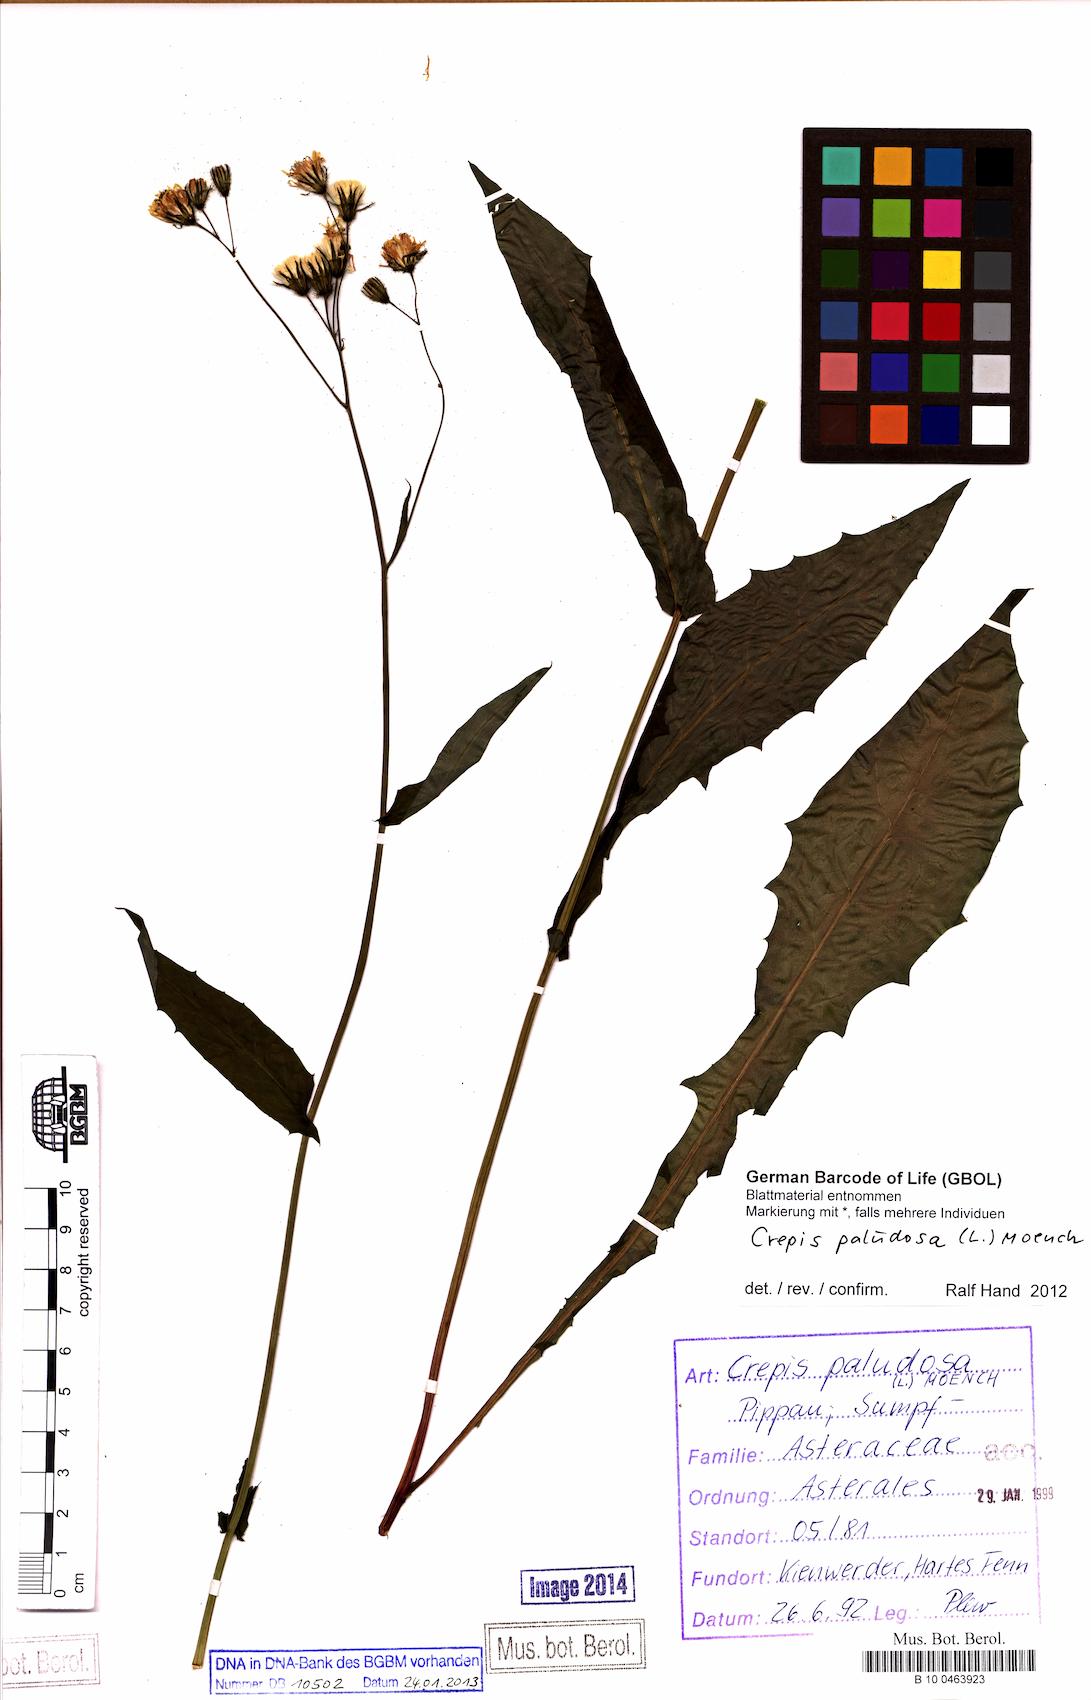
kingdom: Plantae
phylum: Tracheophyta
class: Magnoliopsida
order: Asterales
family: Asteraceae
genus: Crepis
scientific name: Crepis paludosa
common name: Marsh hawk's-beard
